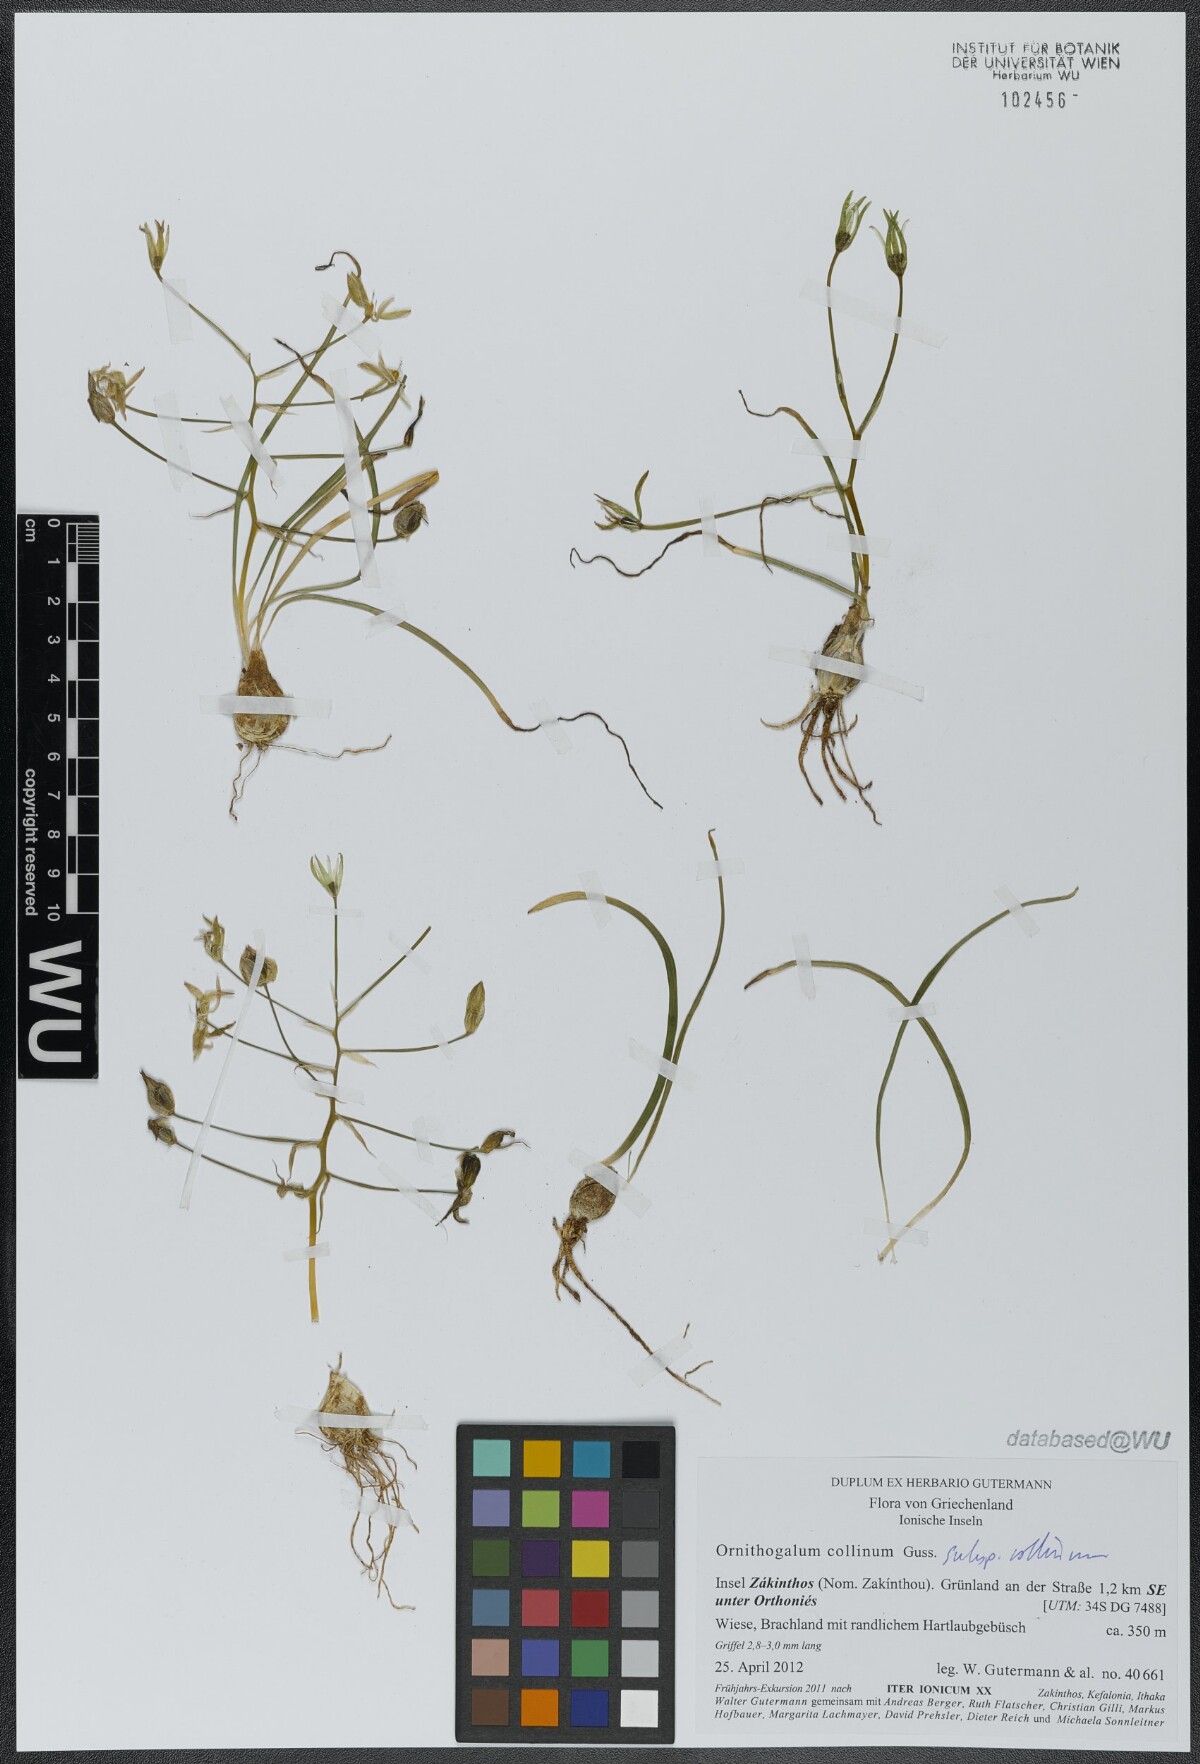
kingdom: Plantae
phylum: Tracheophyta
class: Liliopsida
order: Asparagales
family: Asparagaceae
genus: Ornithogalum
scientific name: Ornithogalum collinum
